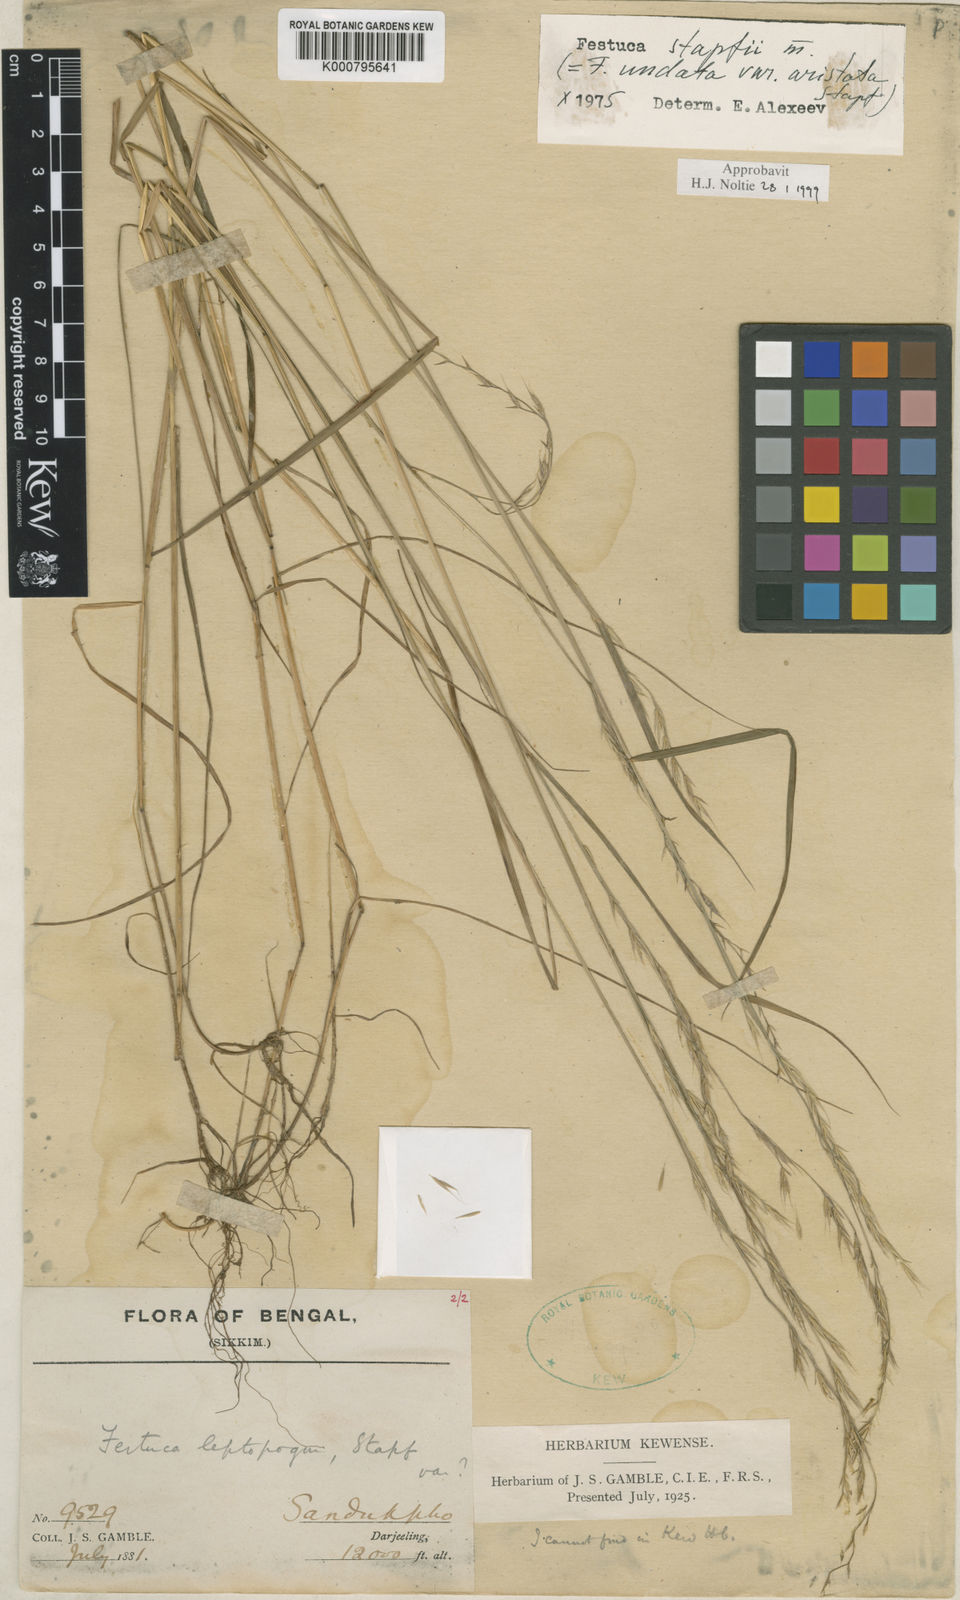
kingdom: Plantae
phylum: Tracheophyta
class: Liliopsida
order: Poales
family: Poaceae
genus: Festuca
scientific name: Festuca undata
